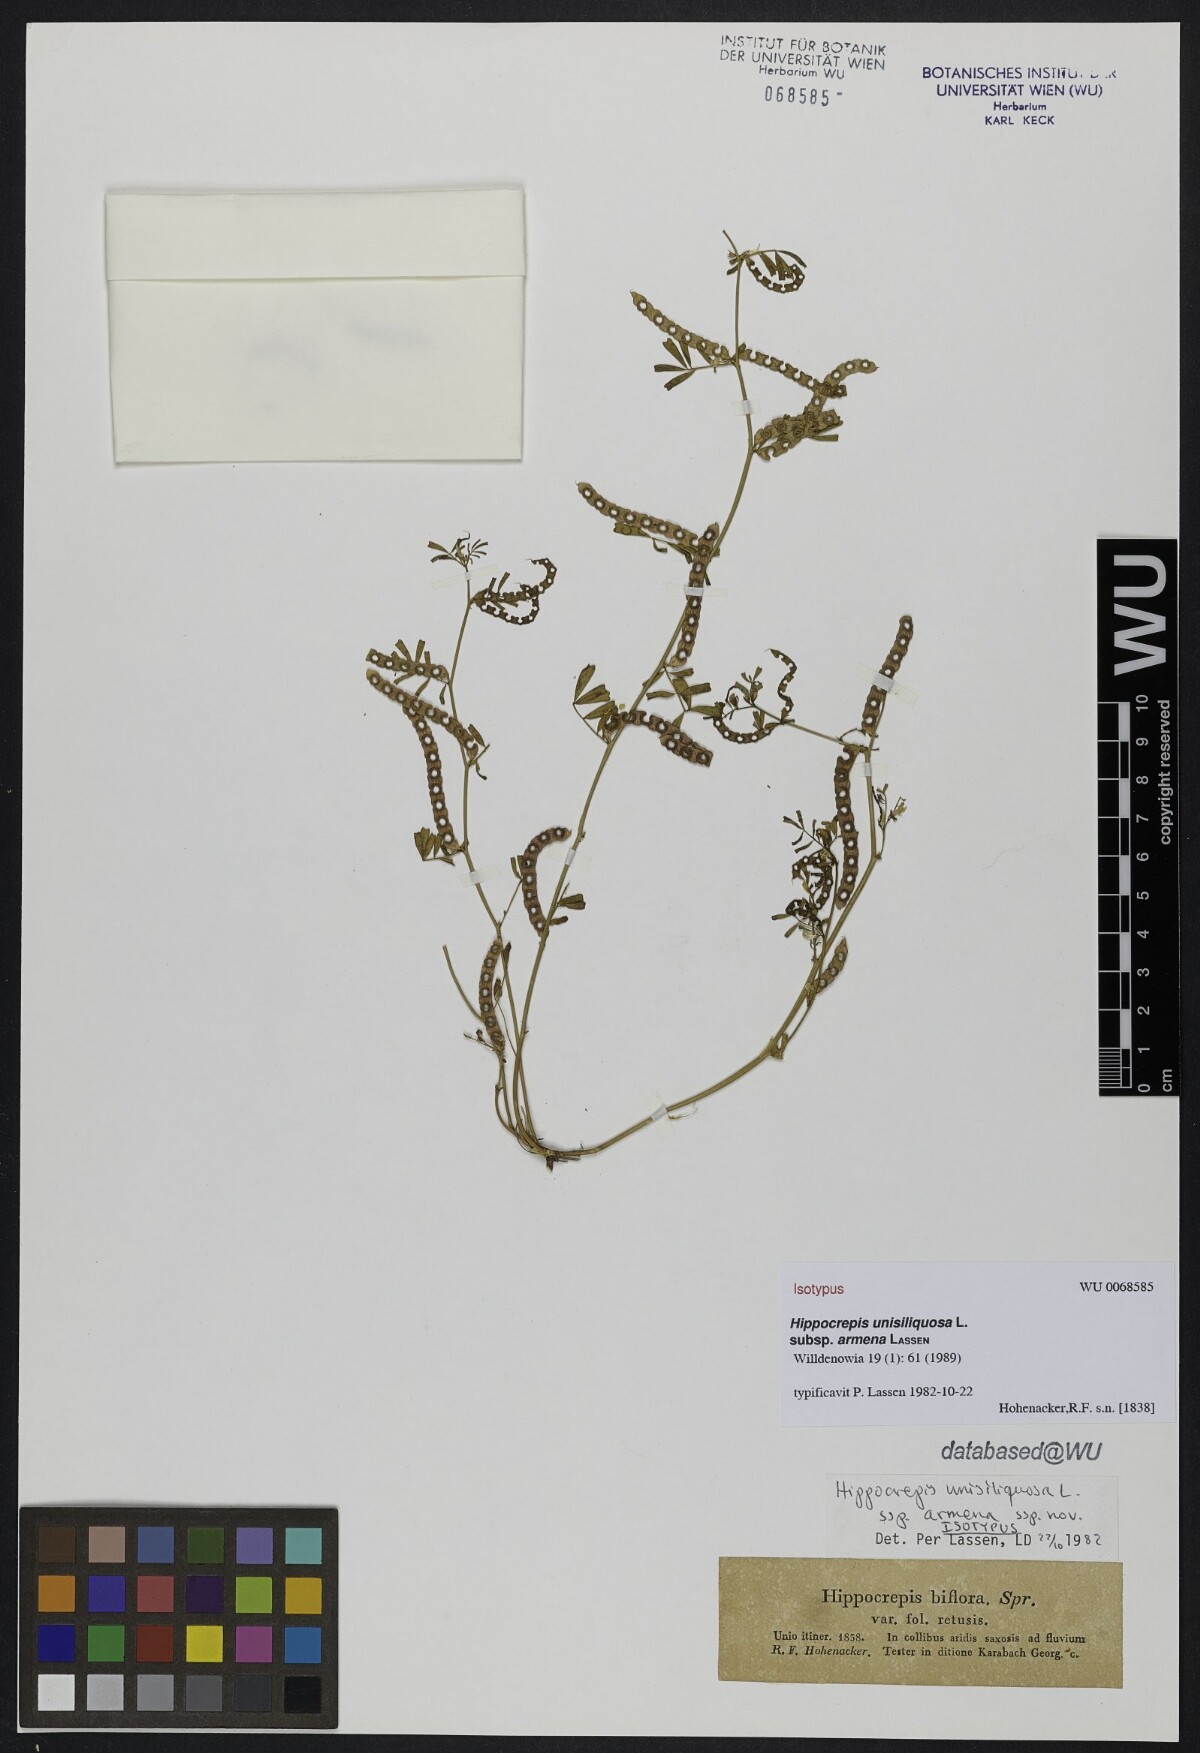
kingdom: Plantae
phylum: Tracheophyta
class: Magnoliopsida
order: Fabales
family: Fabaceae
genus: Hippocrepis
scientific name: Hippocrepis unisiliquosa
